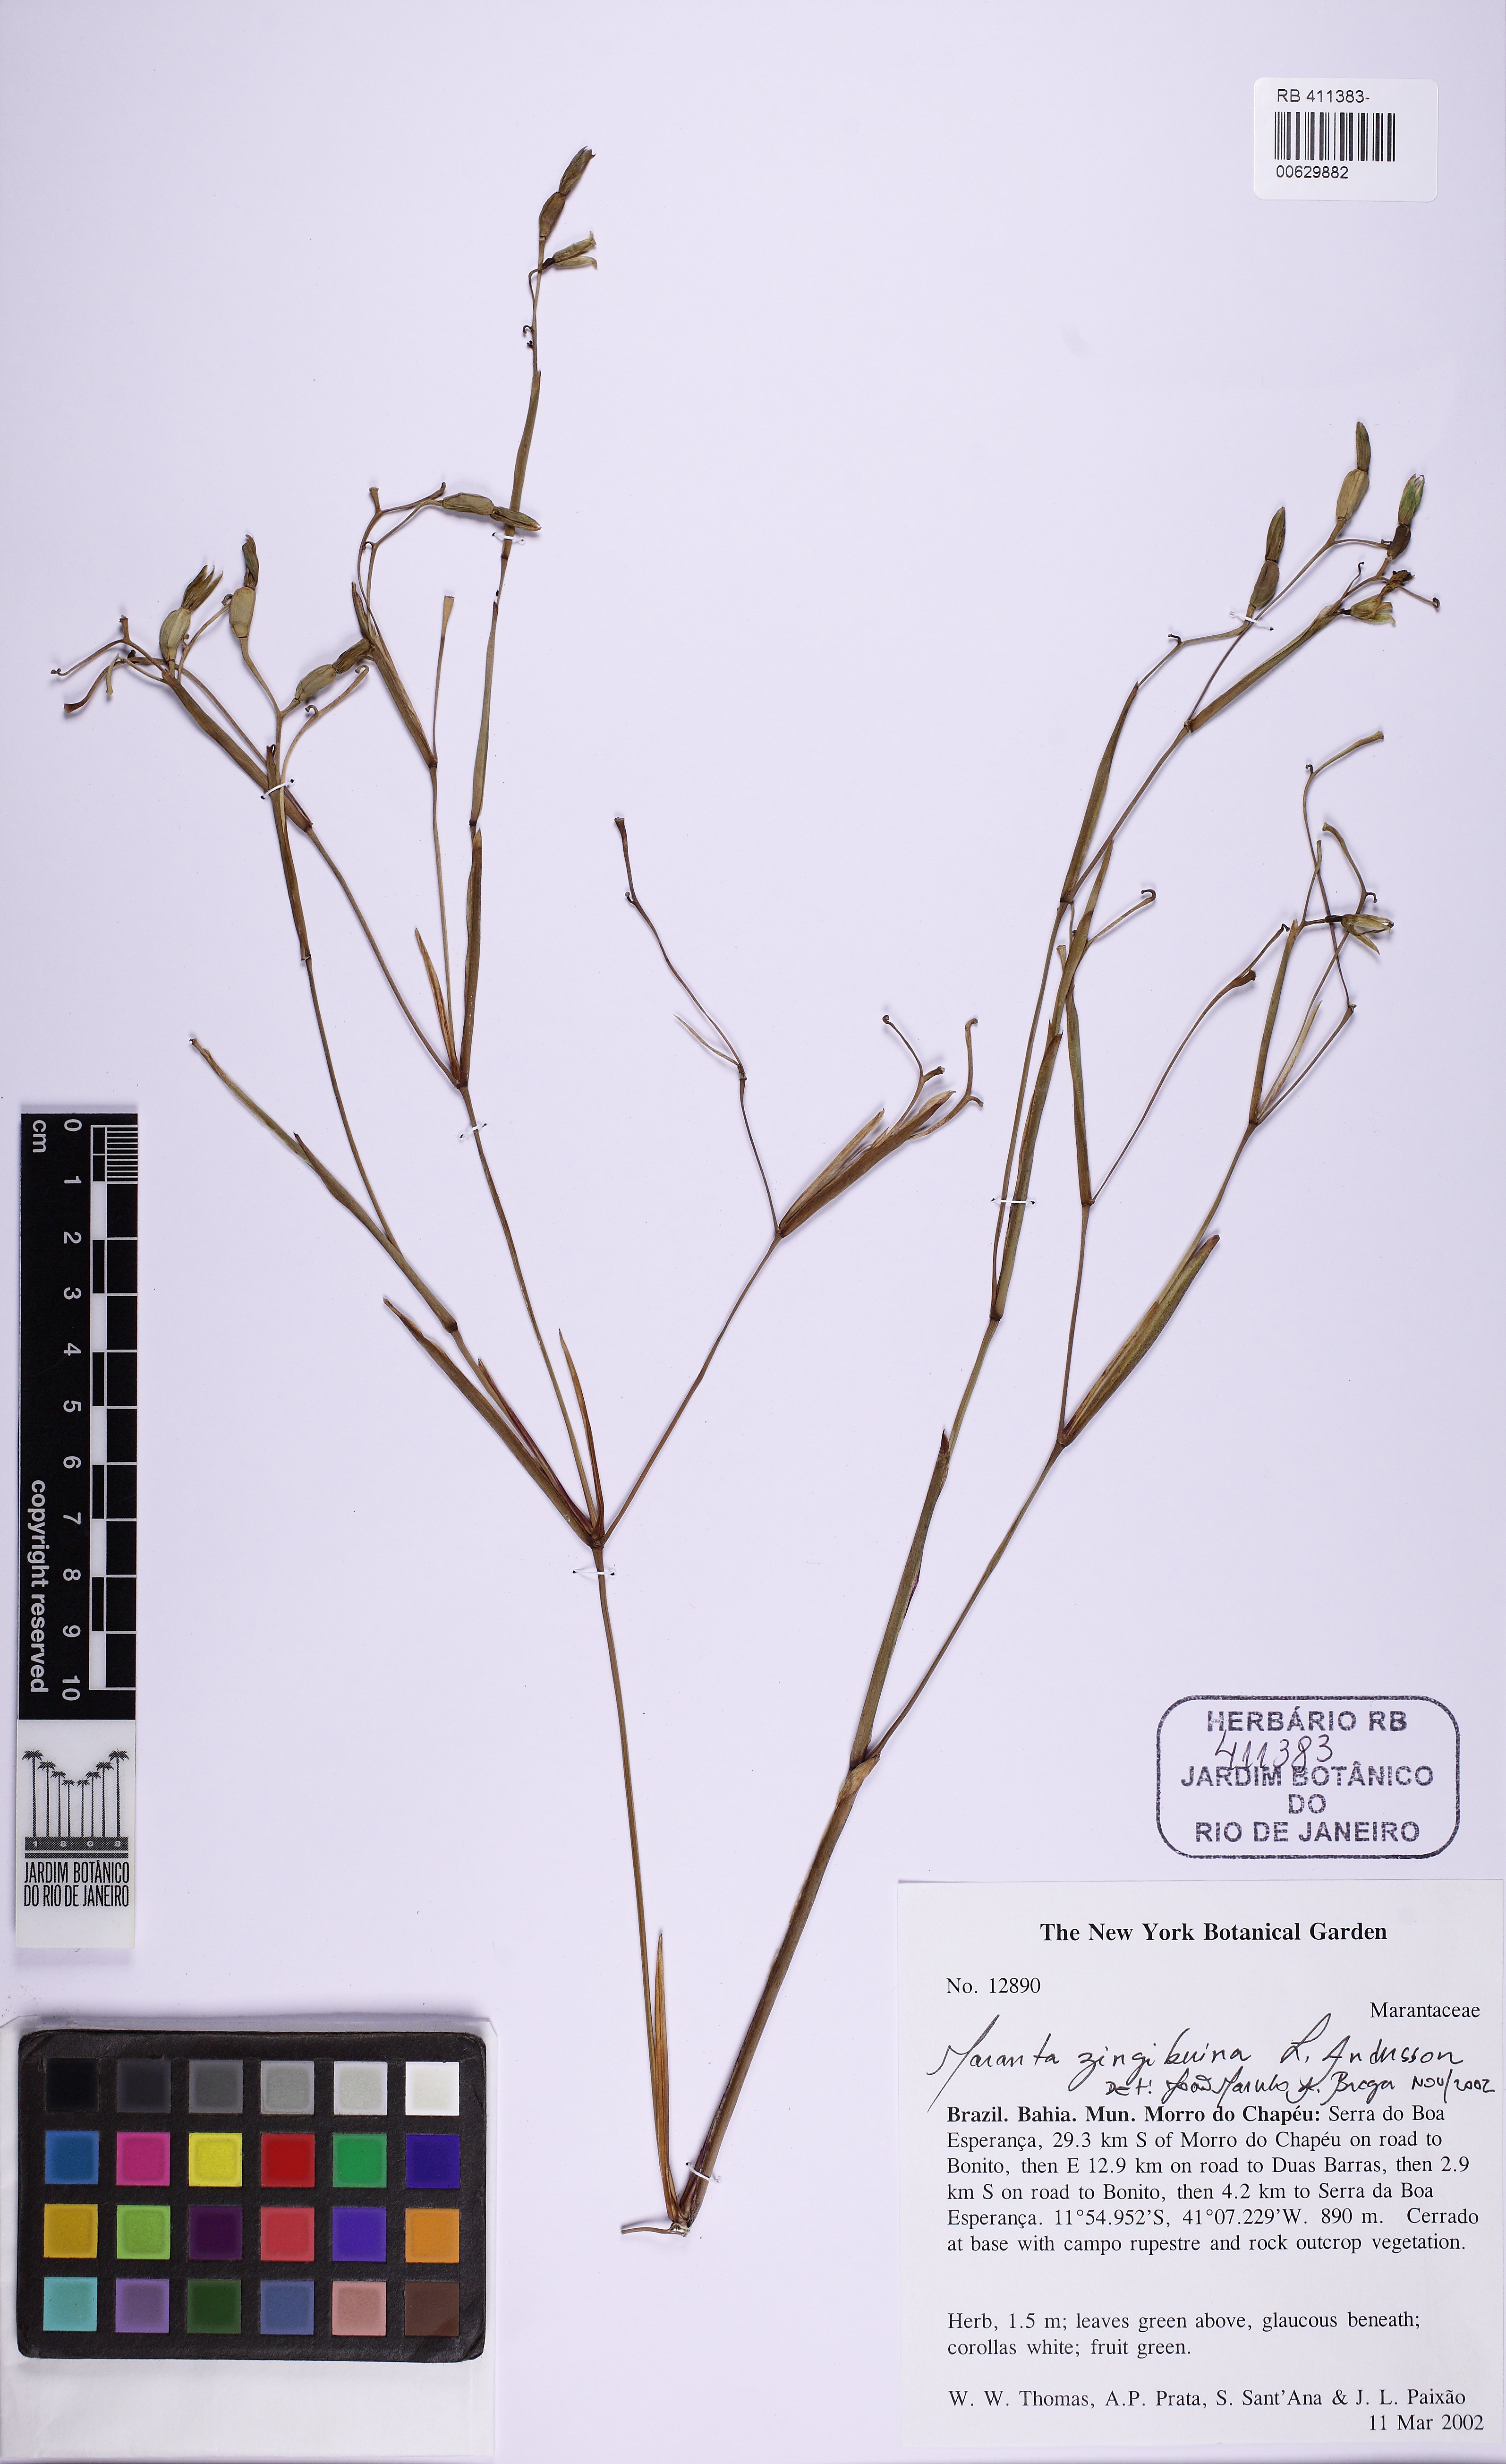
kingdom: Plantae
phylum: Tracheophyta
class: Liliopsida
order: Zingiberales
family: Marantaceae
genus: Maranta
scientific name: Maranta zingiberina
